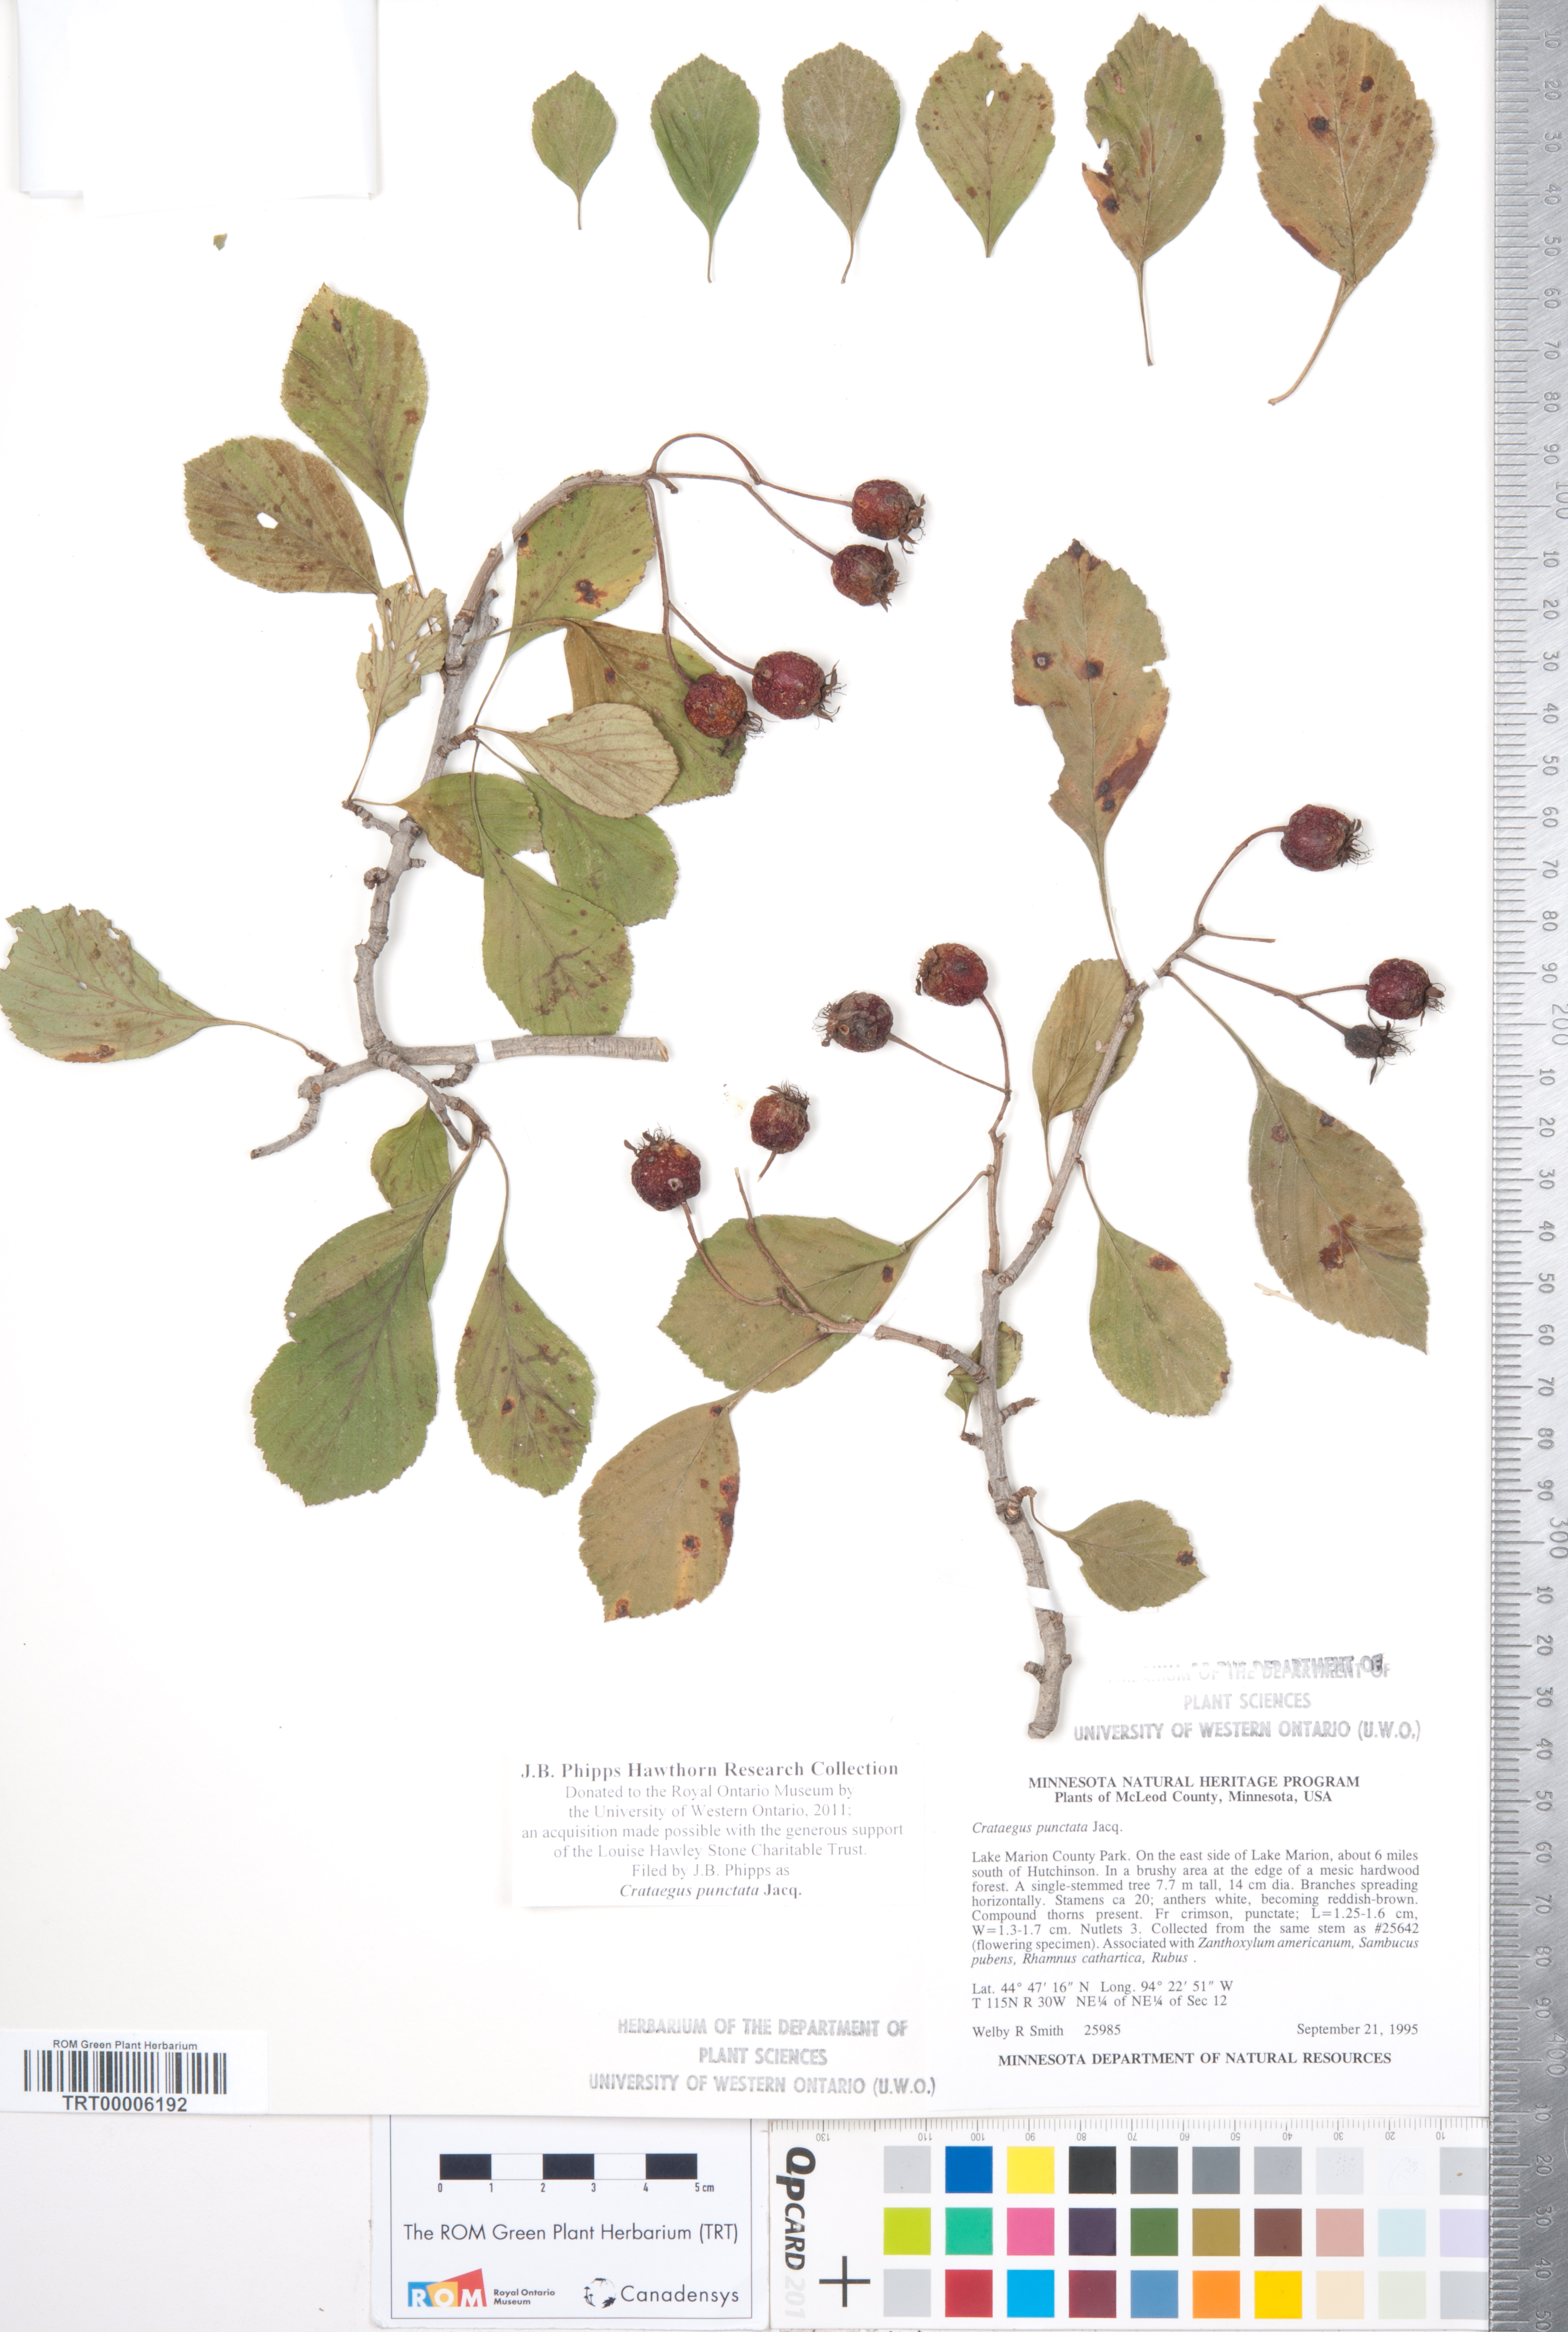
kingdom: Plantae
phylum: Tracheophyta
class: Magnoliopsida
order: Rosales
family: Rosaceae
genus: Crataegus
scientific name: Crataegus punctata
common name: Dotted hawthorn
